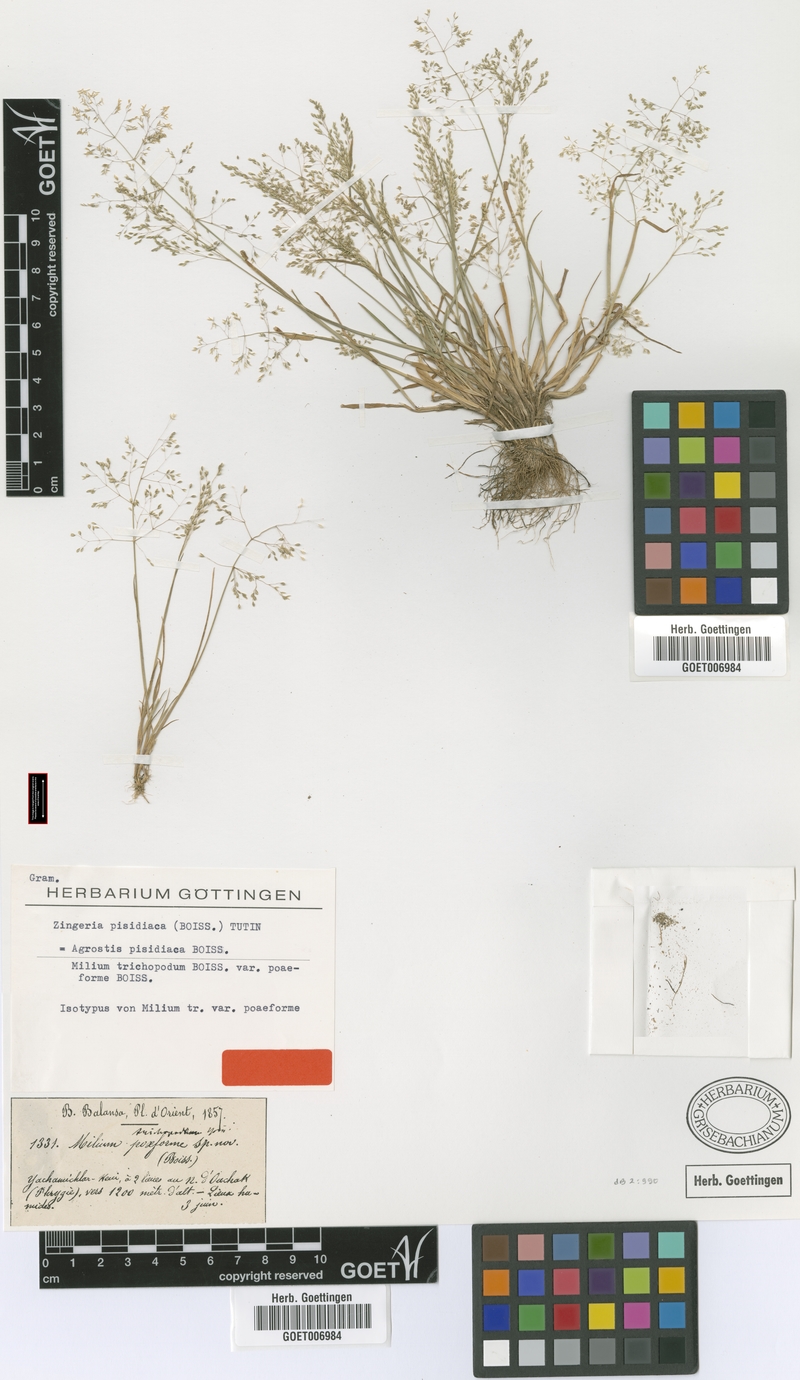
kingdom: Plantae
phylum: Tracheophyta
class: Liliopsida
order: Poales
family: Poaceae
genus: Colpodium
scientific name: Colpodium pisidicum
